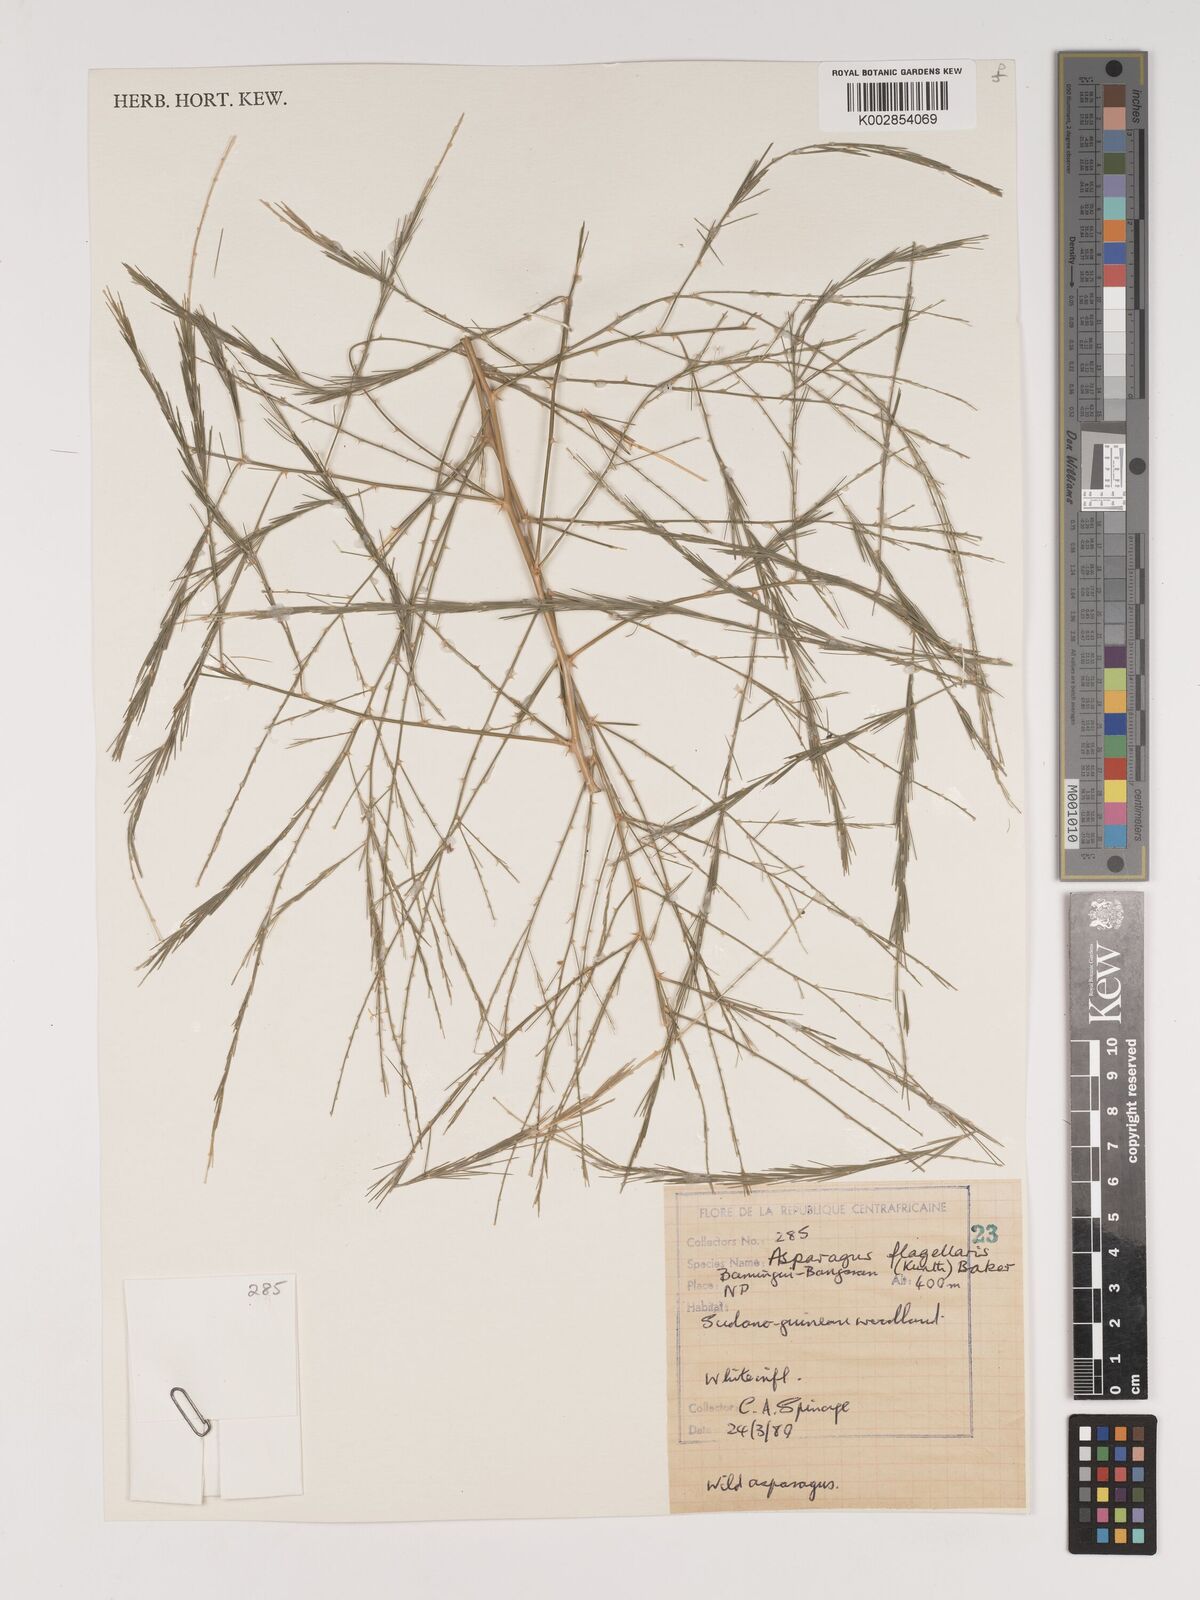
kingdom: Plantae
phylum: Tracheophyta
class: Liliopsida
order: Asparagales
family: Asparagaceae
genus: Asparagus
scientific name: Asparagus flagellaris
